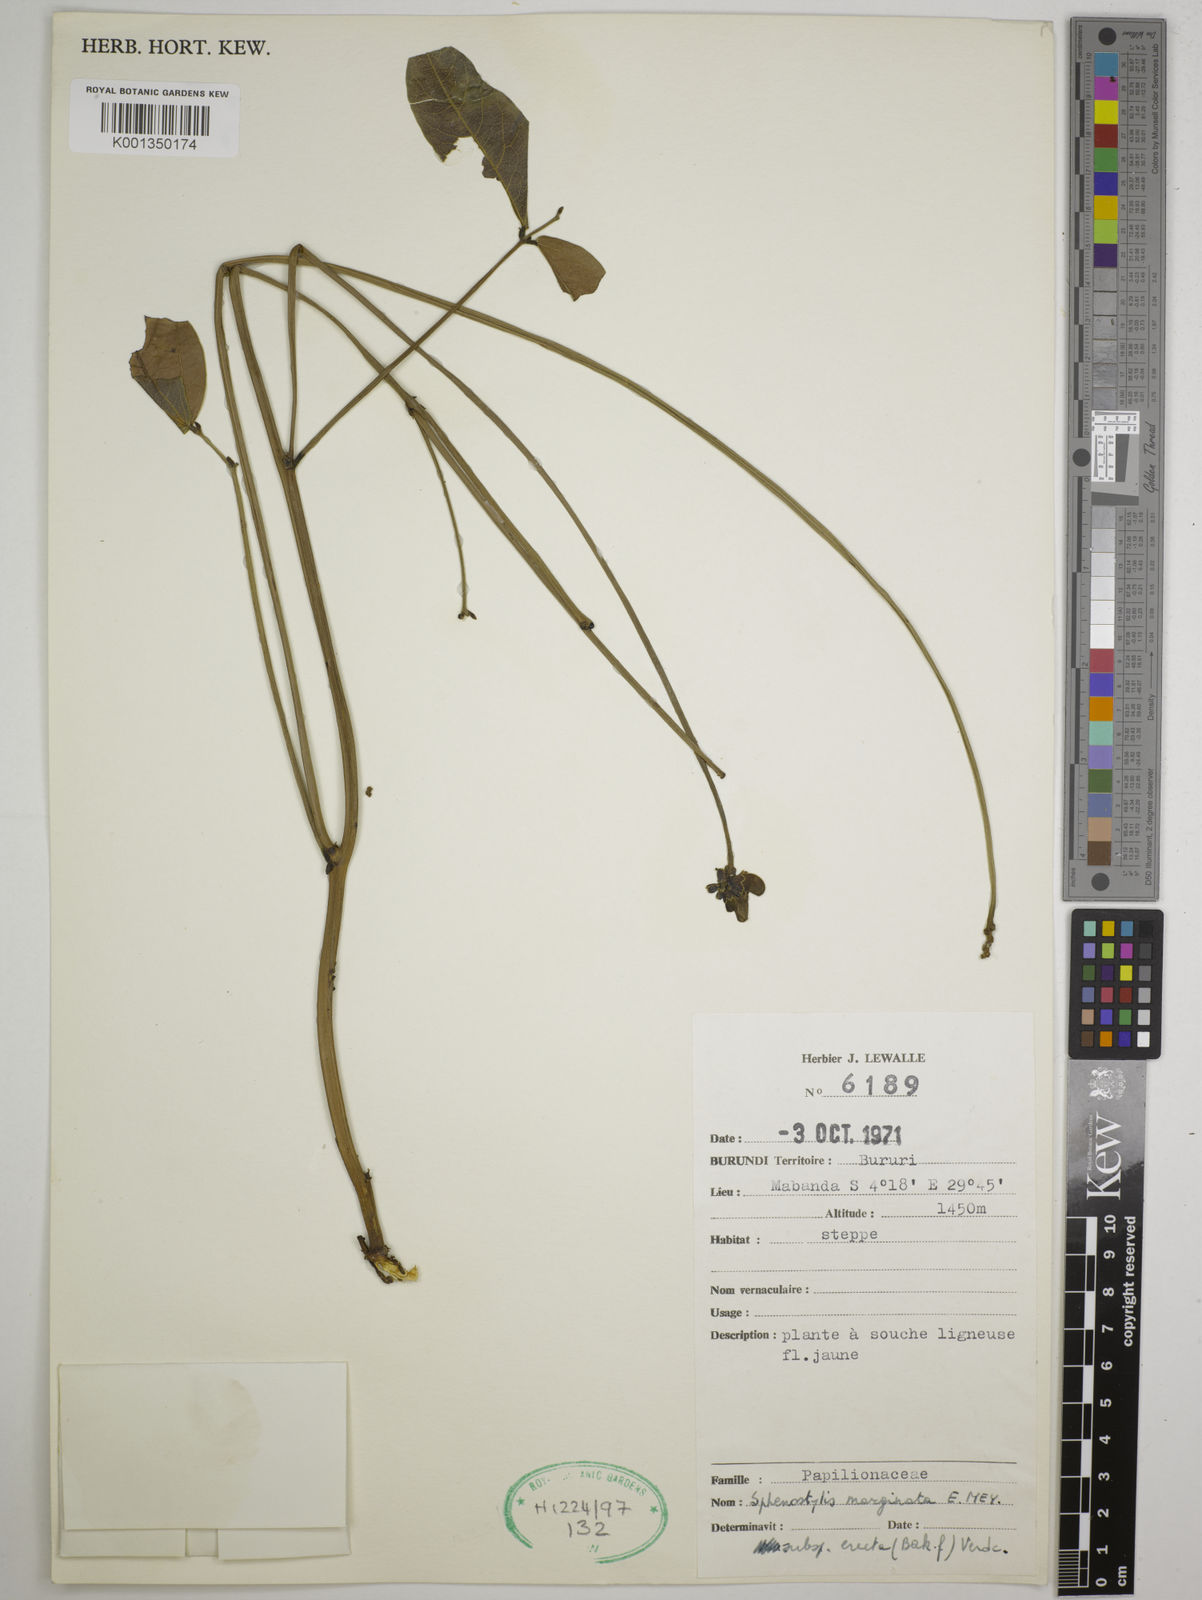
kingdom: Plantae
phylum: Tracheophyta
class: Magnoliopsida
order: Fabales
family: Fabaceae
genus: Sphenostylis
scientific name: Sphenostylis erecta
